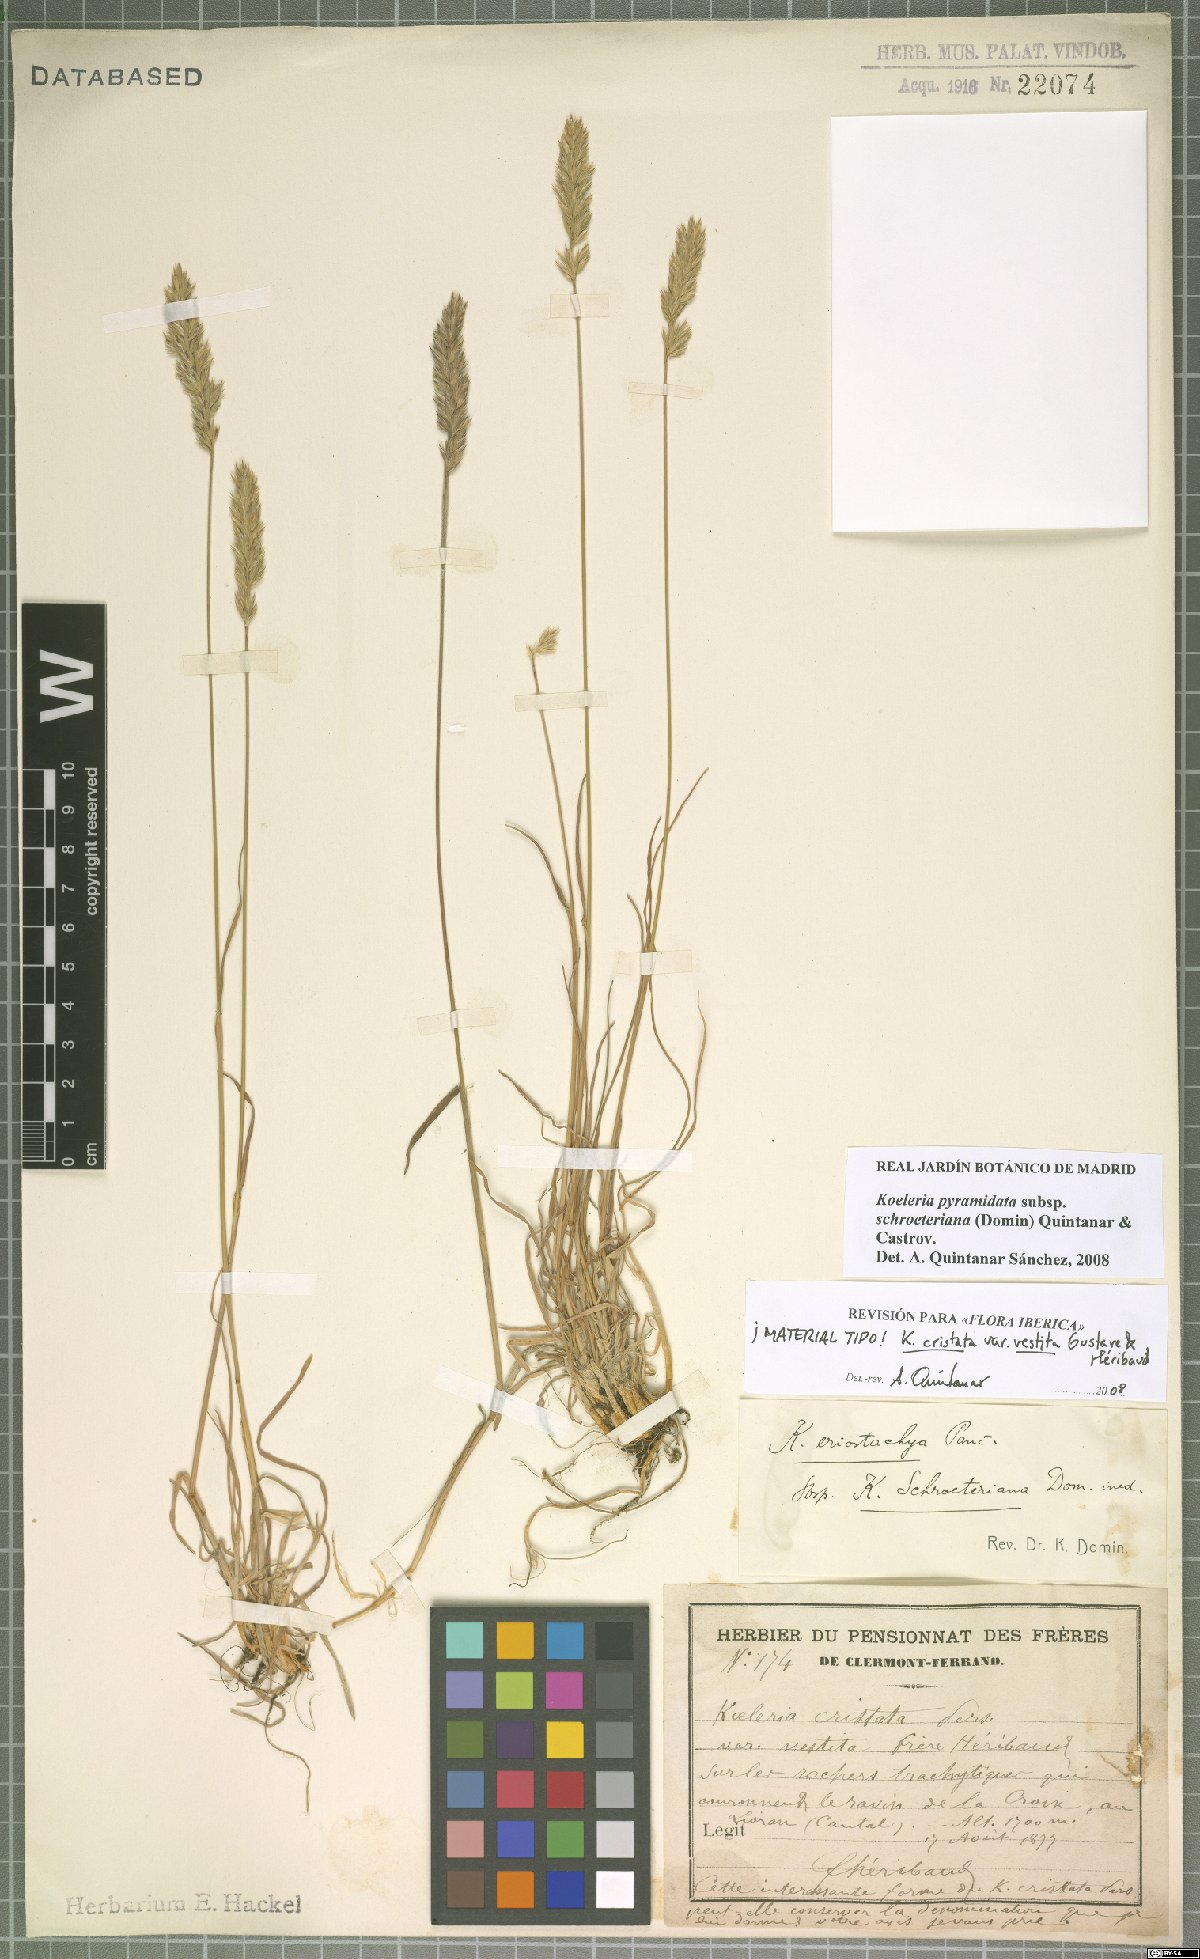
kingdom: Plantae
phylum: Tracheophyta
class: Liliopsida
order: Poales
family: Poaceae
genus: Koeleria
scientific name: Koeleria pyramidata
